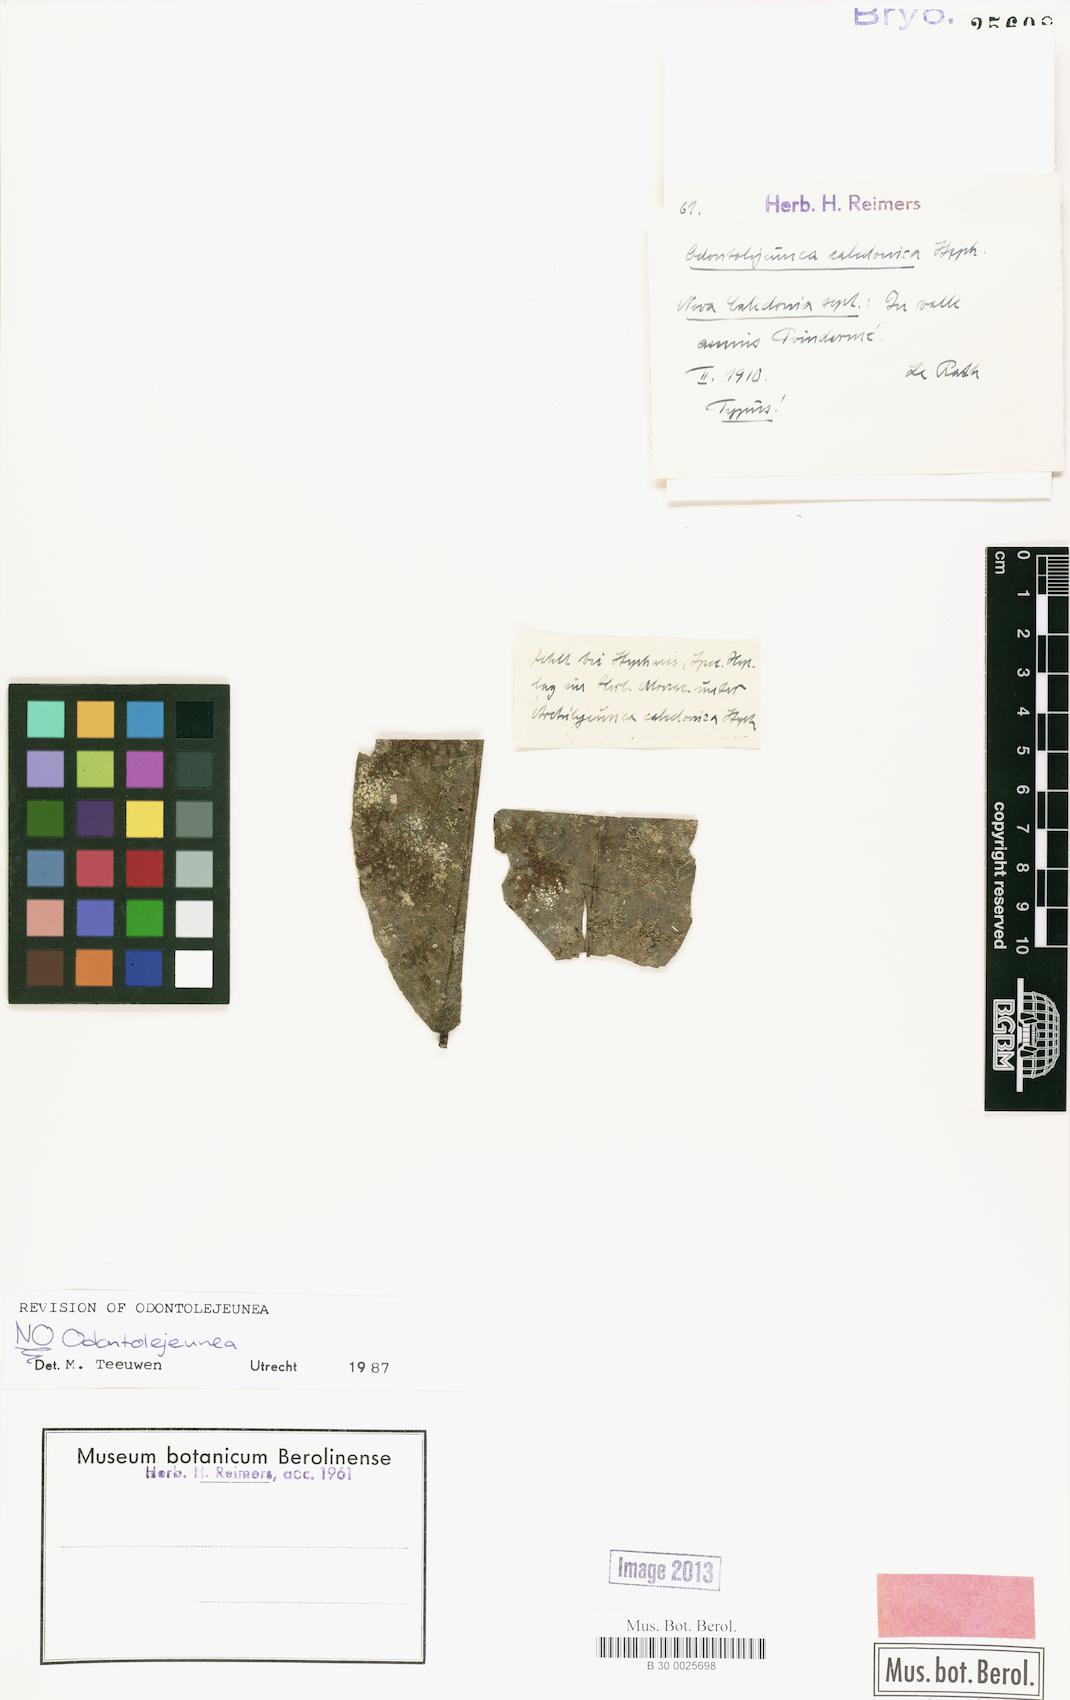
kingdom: Plantae
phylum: Marchantiophyta
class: Jungermanniopsida
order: Porellales
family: Lejeuneaceae
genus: Odontolejeunea
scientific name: Odontolejeunea
